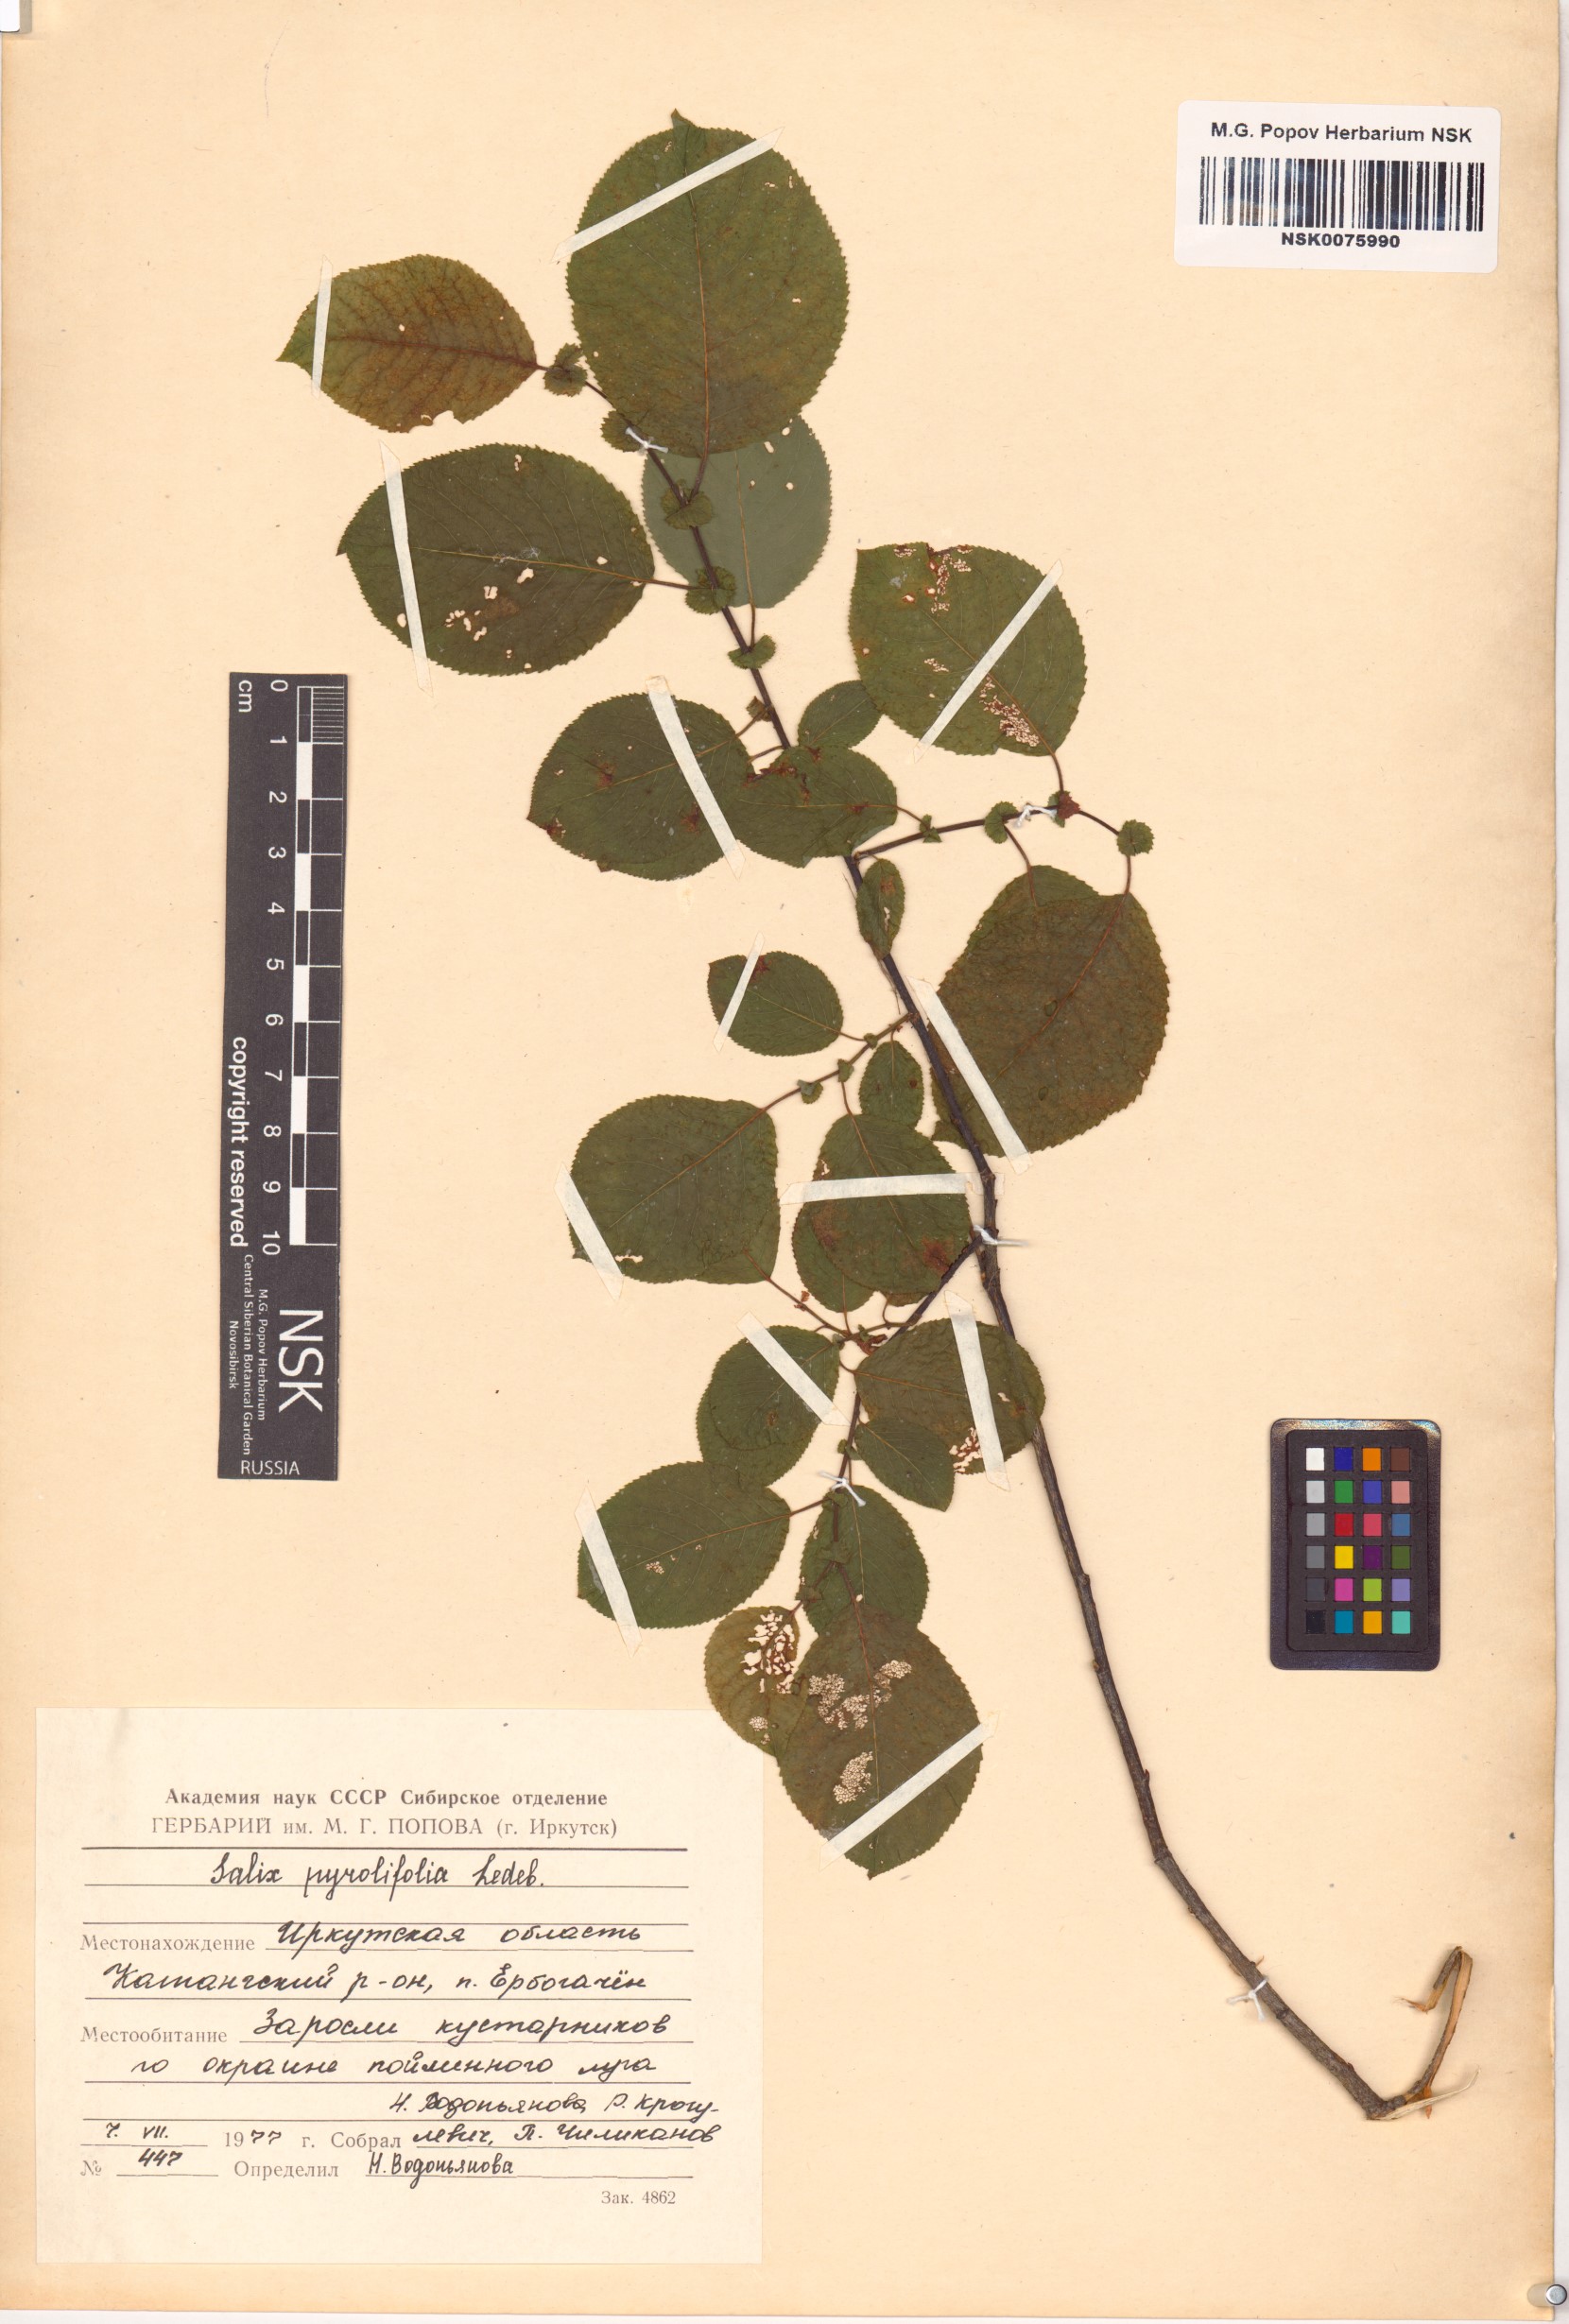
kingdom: Plantae
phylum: Tracheophyta
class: Magnoliopsida
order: Malpighiales
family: Salicaceae
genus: Salix
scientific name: Salix pyrolifolia
